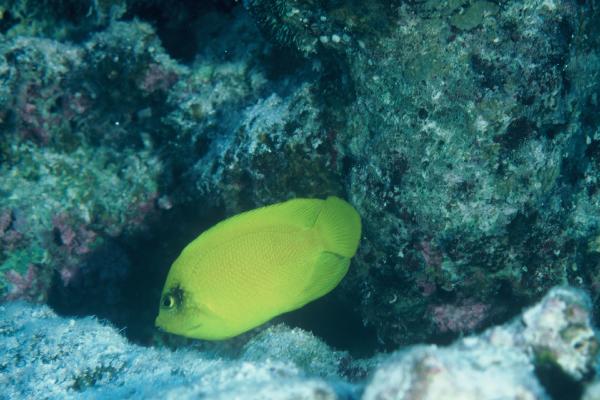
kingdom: Animalia
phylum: Chordata
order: Perciformes
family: Pomacanthidae
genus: Centropyge
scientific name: Centropyge heraldi
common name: Herald's angelfish
